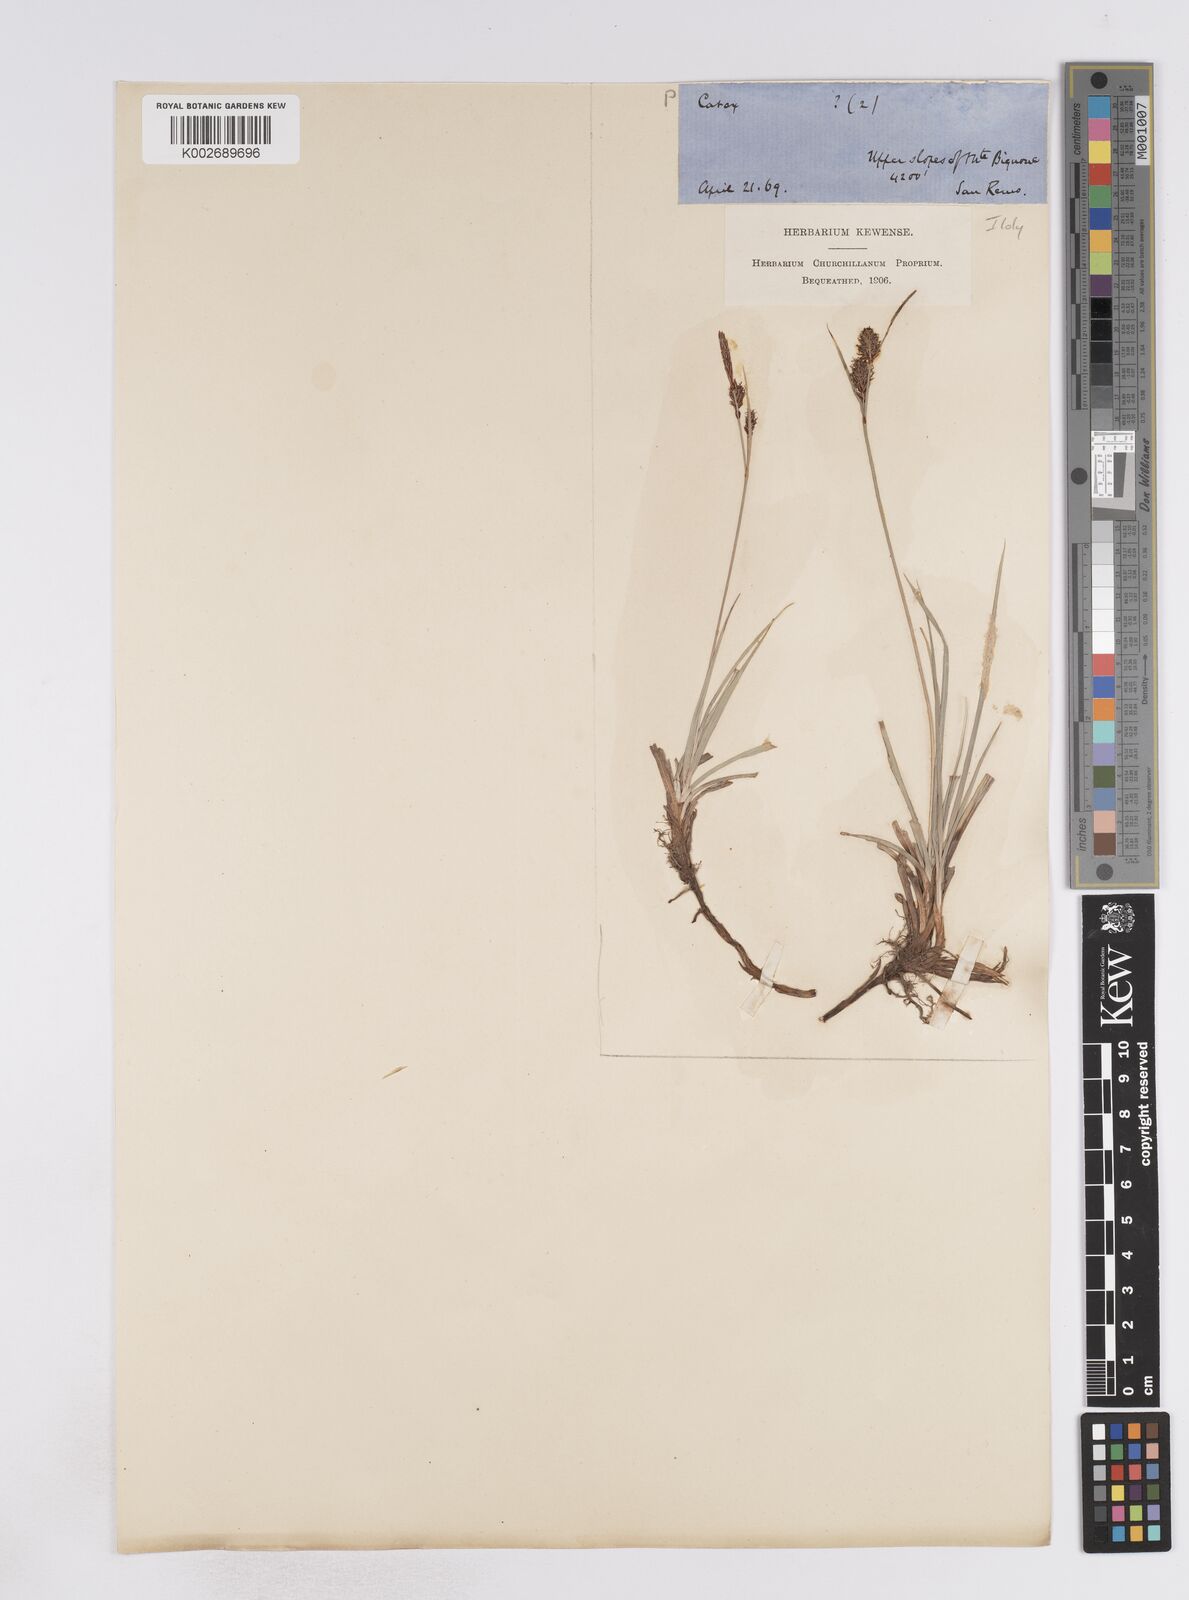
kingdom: Plantae
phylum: Tracheophyta
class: Liliopsida
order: Poales
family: Cyperaceae
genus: Carex
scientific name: Carex flacca
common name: Glaucous sedge
